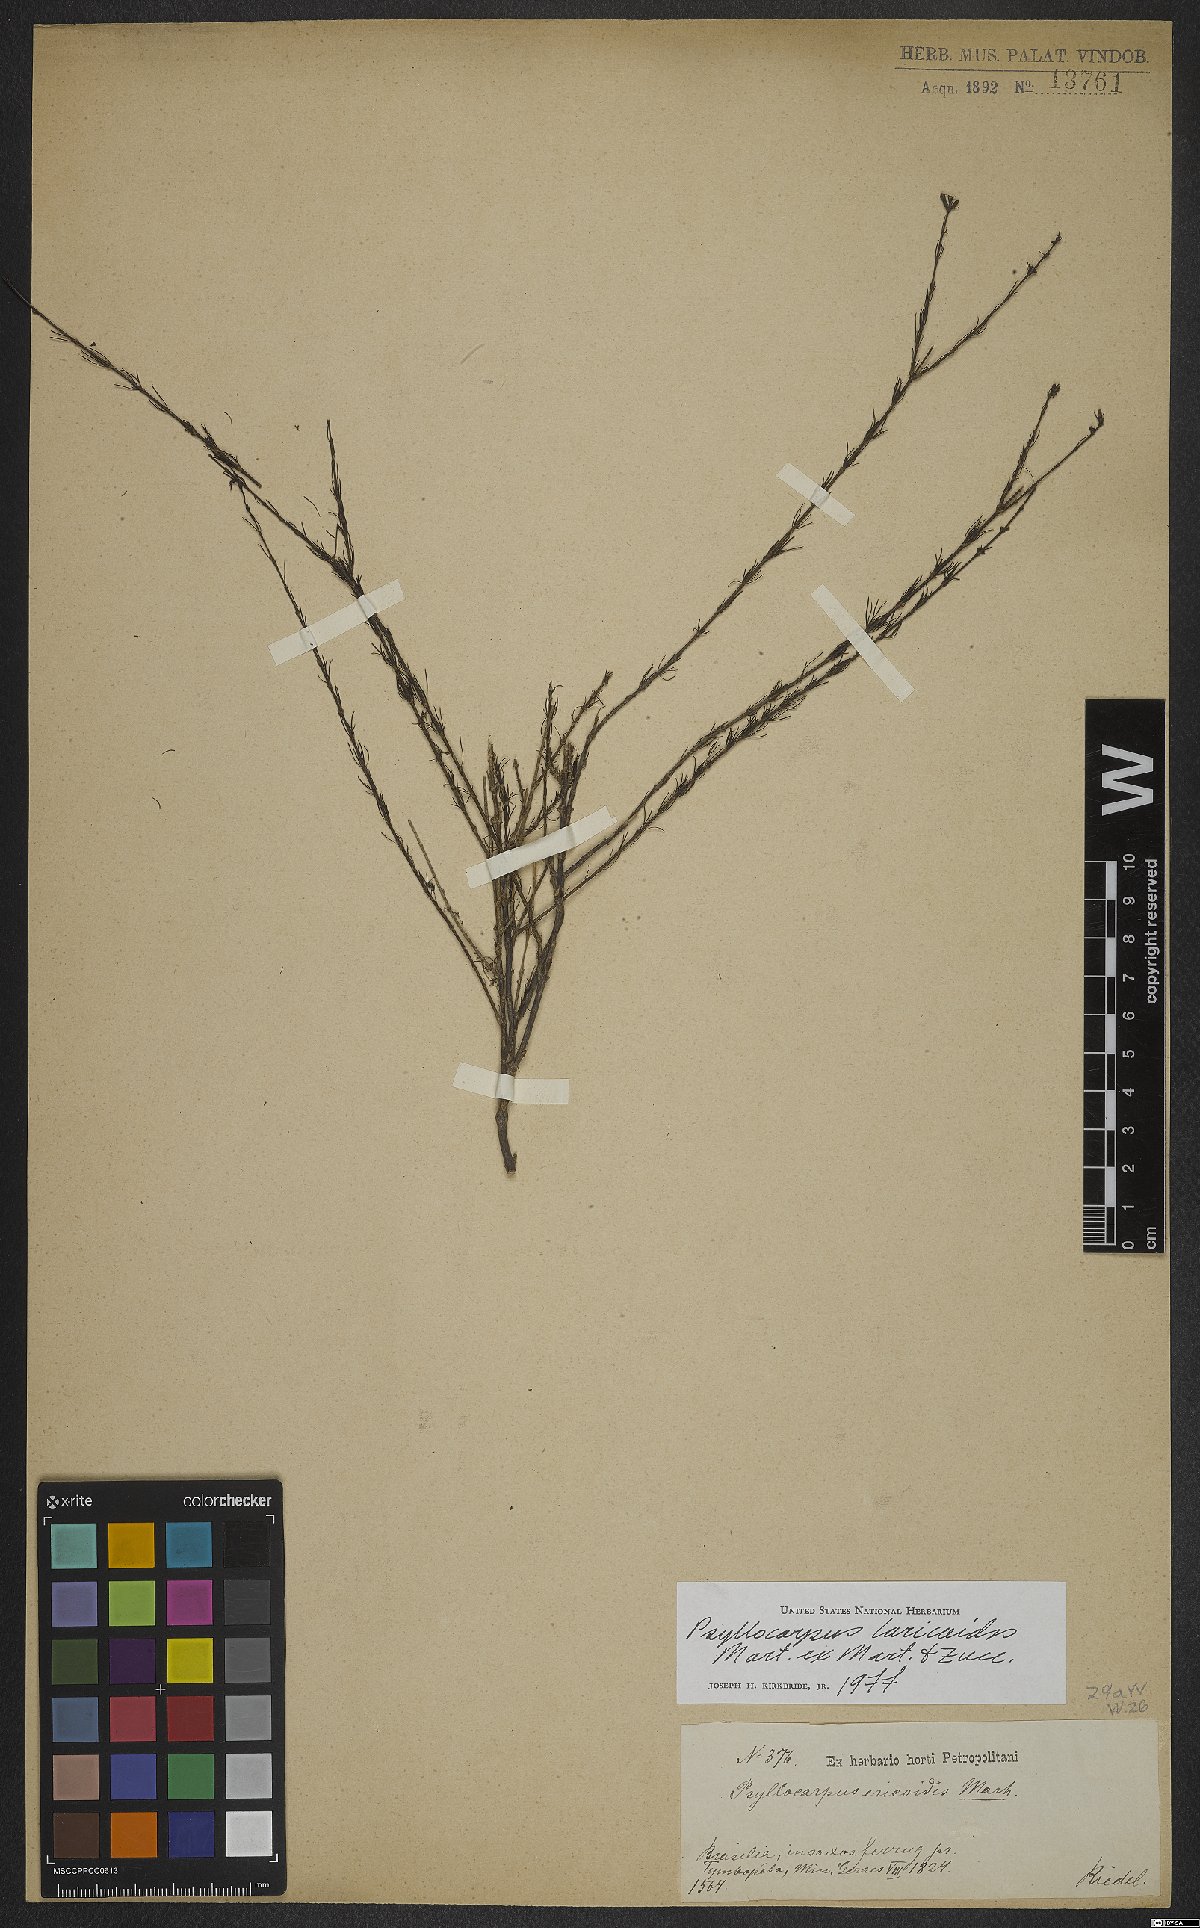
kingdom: Plantae
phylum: Tracheophyta
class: Magnoliopsida
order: Gentianales
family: Rubiaceae
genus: Psyllocarpus
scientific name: Psyllocarpus laricoides
